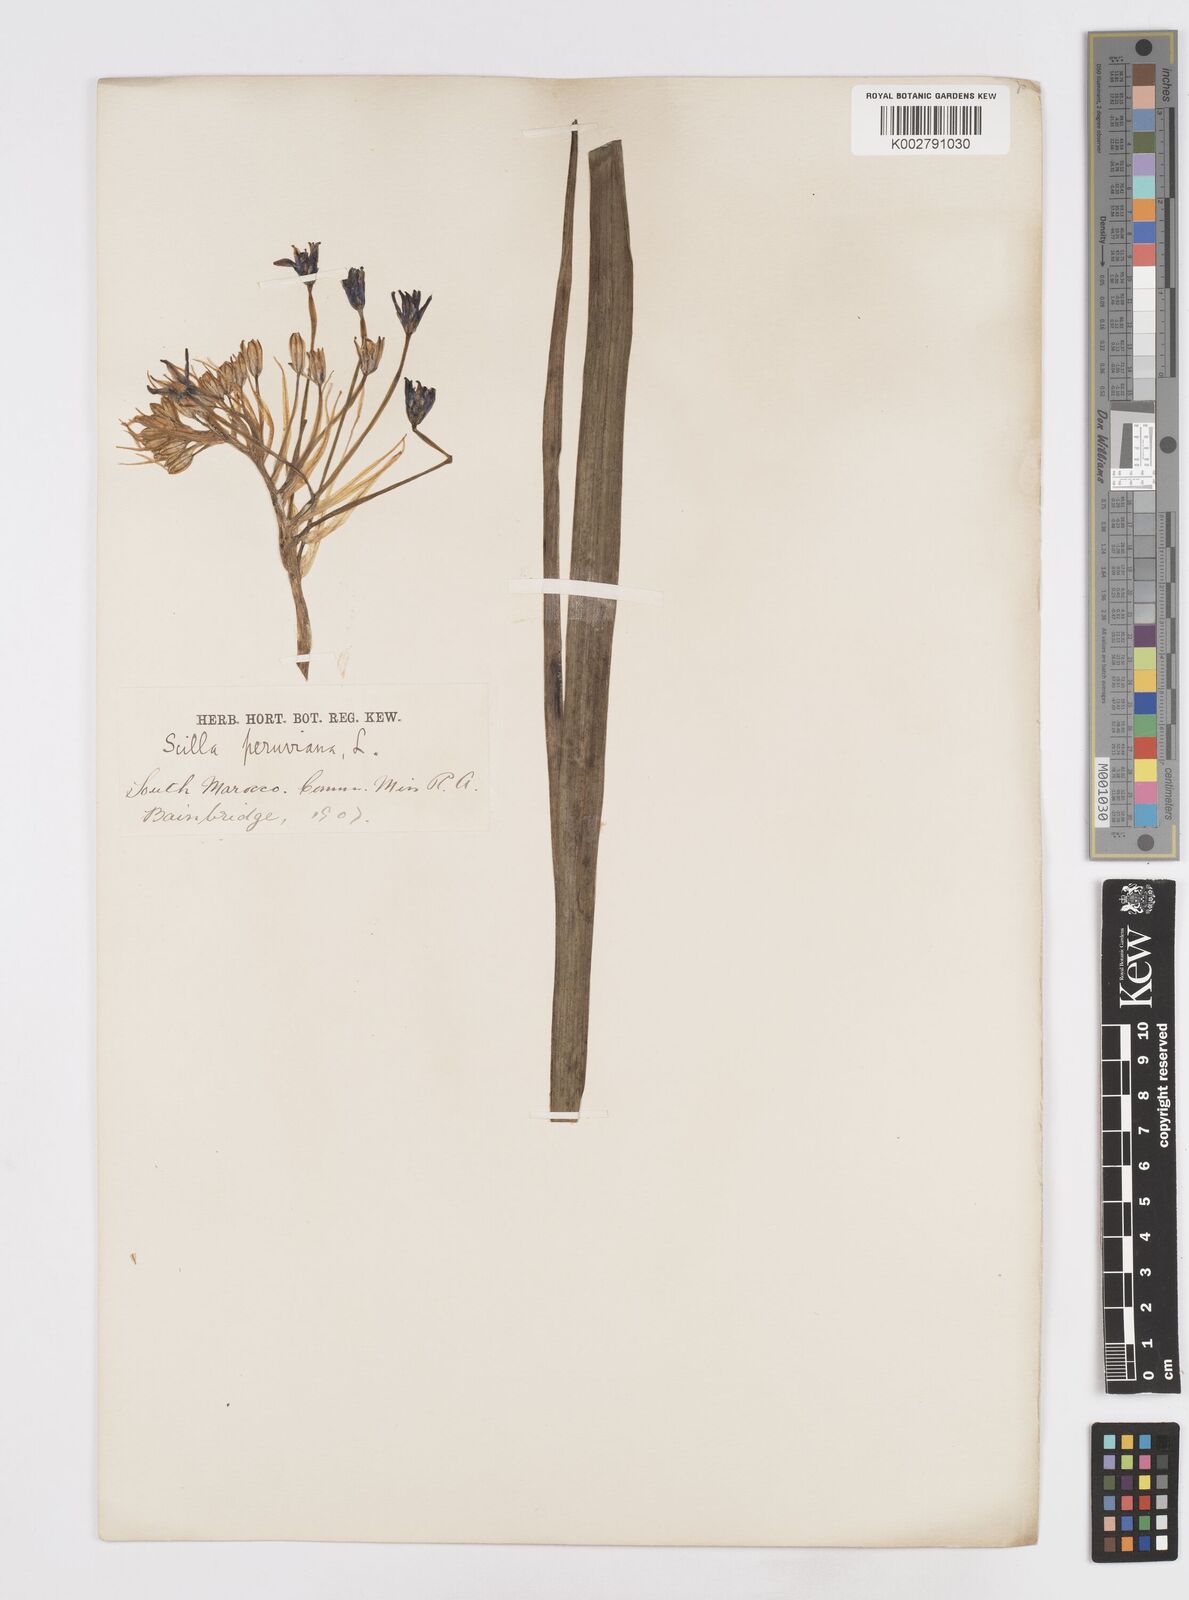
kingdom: Plantae
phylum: Tracheophyta
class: Liliopsida
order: Asparagales
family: Asparagaceae
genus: Scilla
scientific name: Scilla peruviana
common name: Portuguese squill
